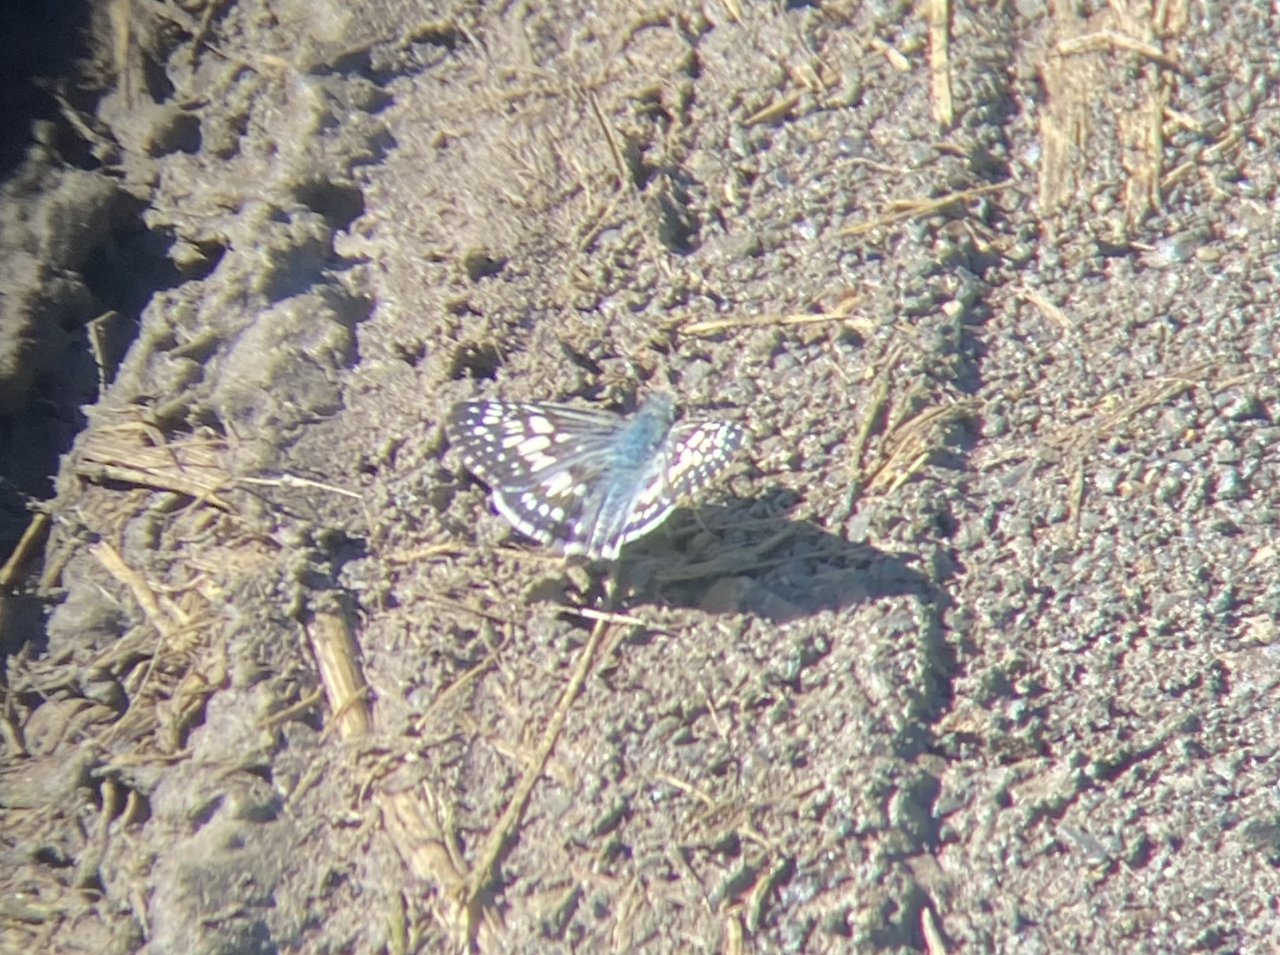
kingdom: Animalia
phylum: Arthropoda
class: Insecta
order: Lepidoptera
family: Hesperiidae
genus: Pyrgus
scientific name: Pyrgus communis
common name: Common Checkered-Skipper
